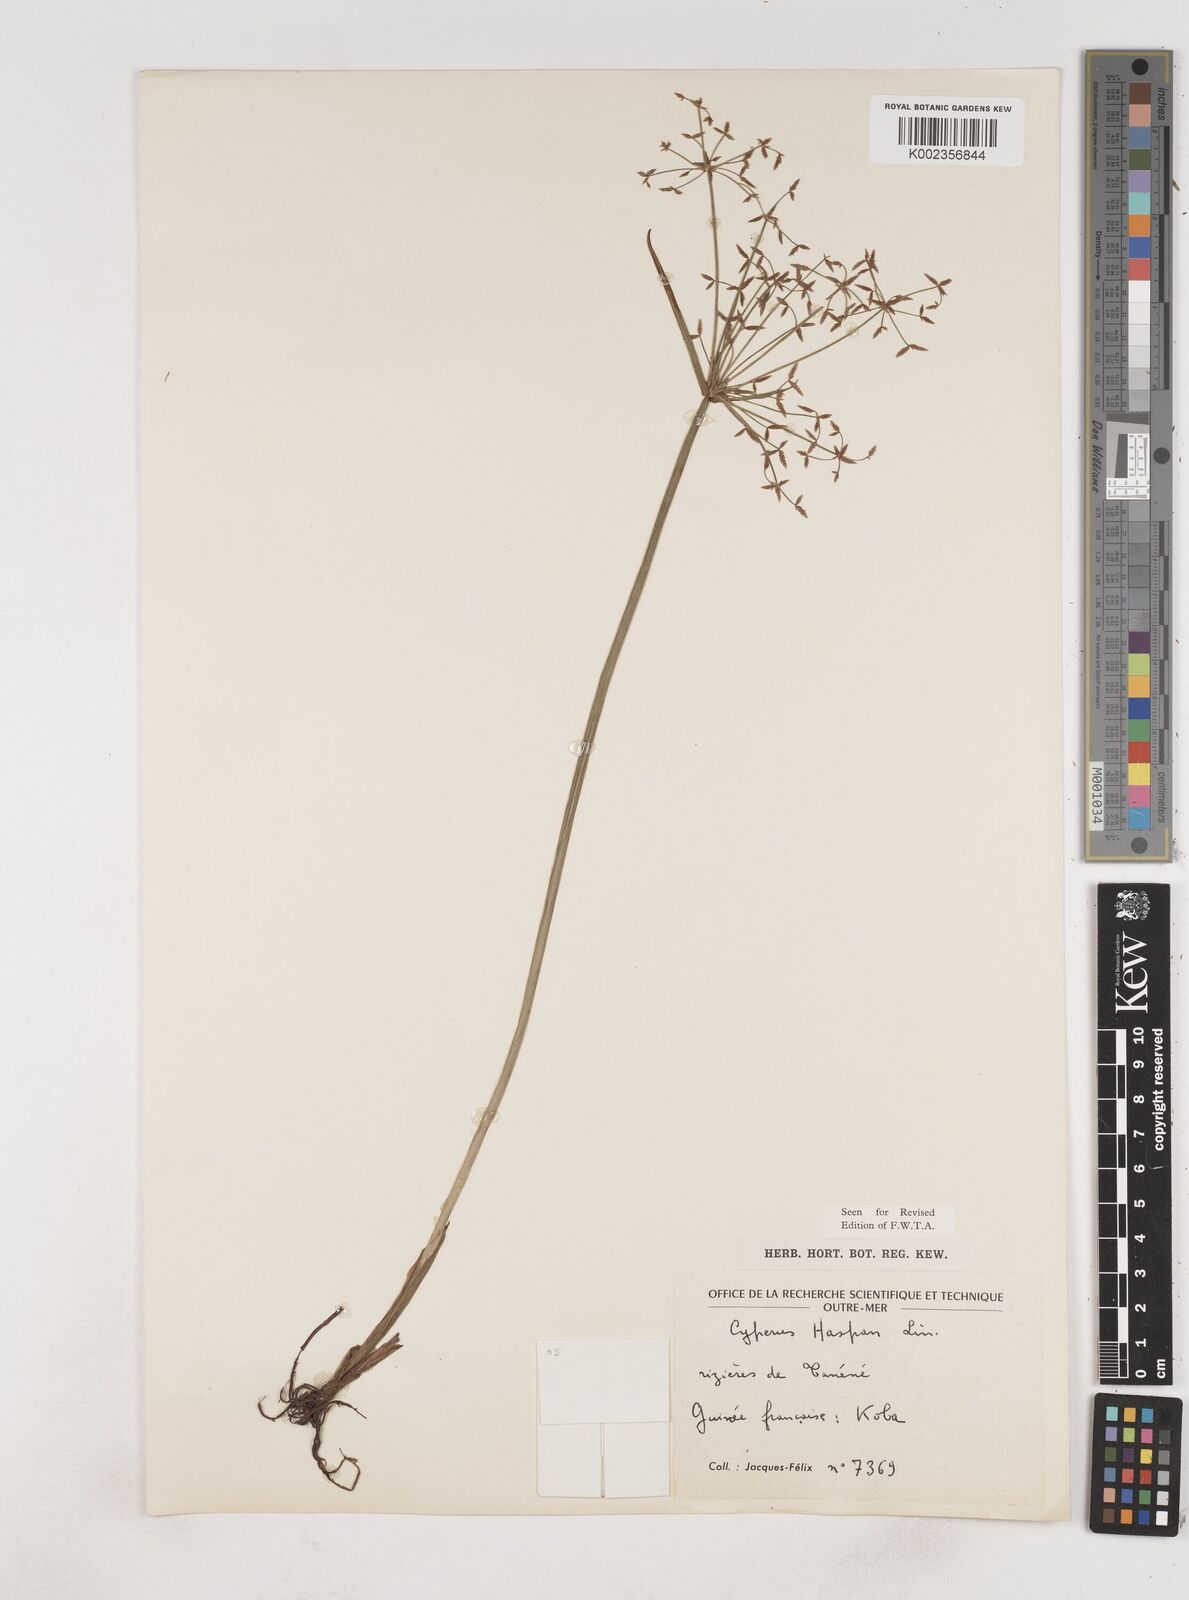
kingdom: Plantae
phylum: Tracheophyta
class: Liliopsida
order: Poales
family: Cyperaceae
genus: Cyperus
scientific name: Cyperus haspan
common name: Haspan flatsedge
